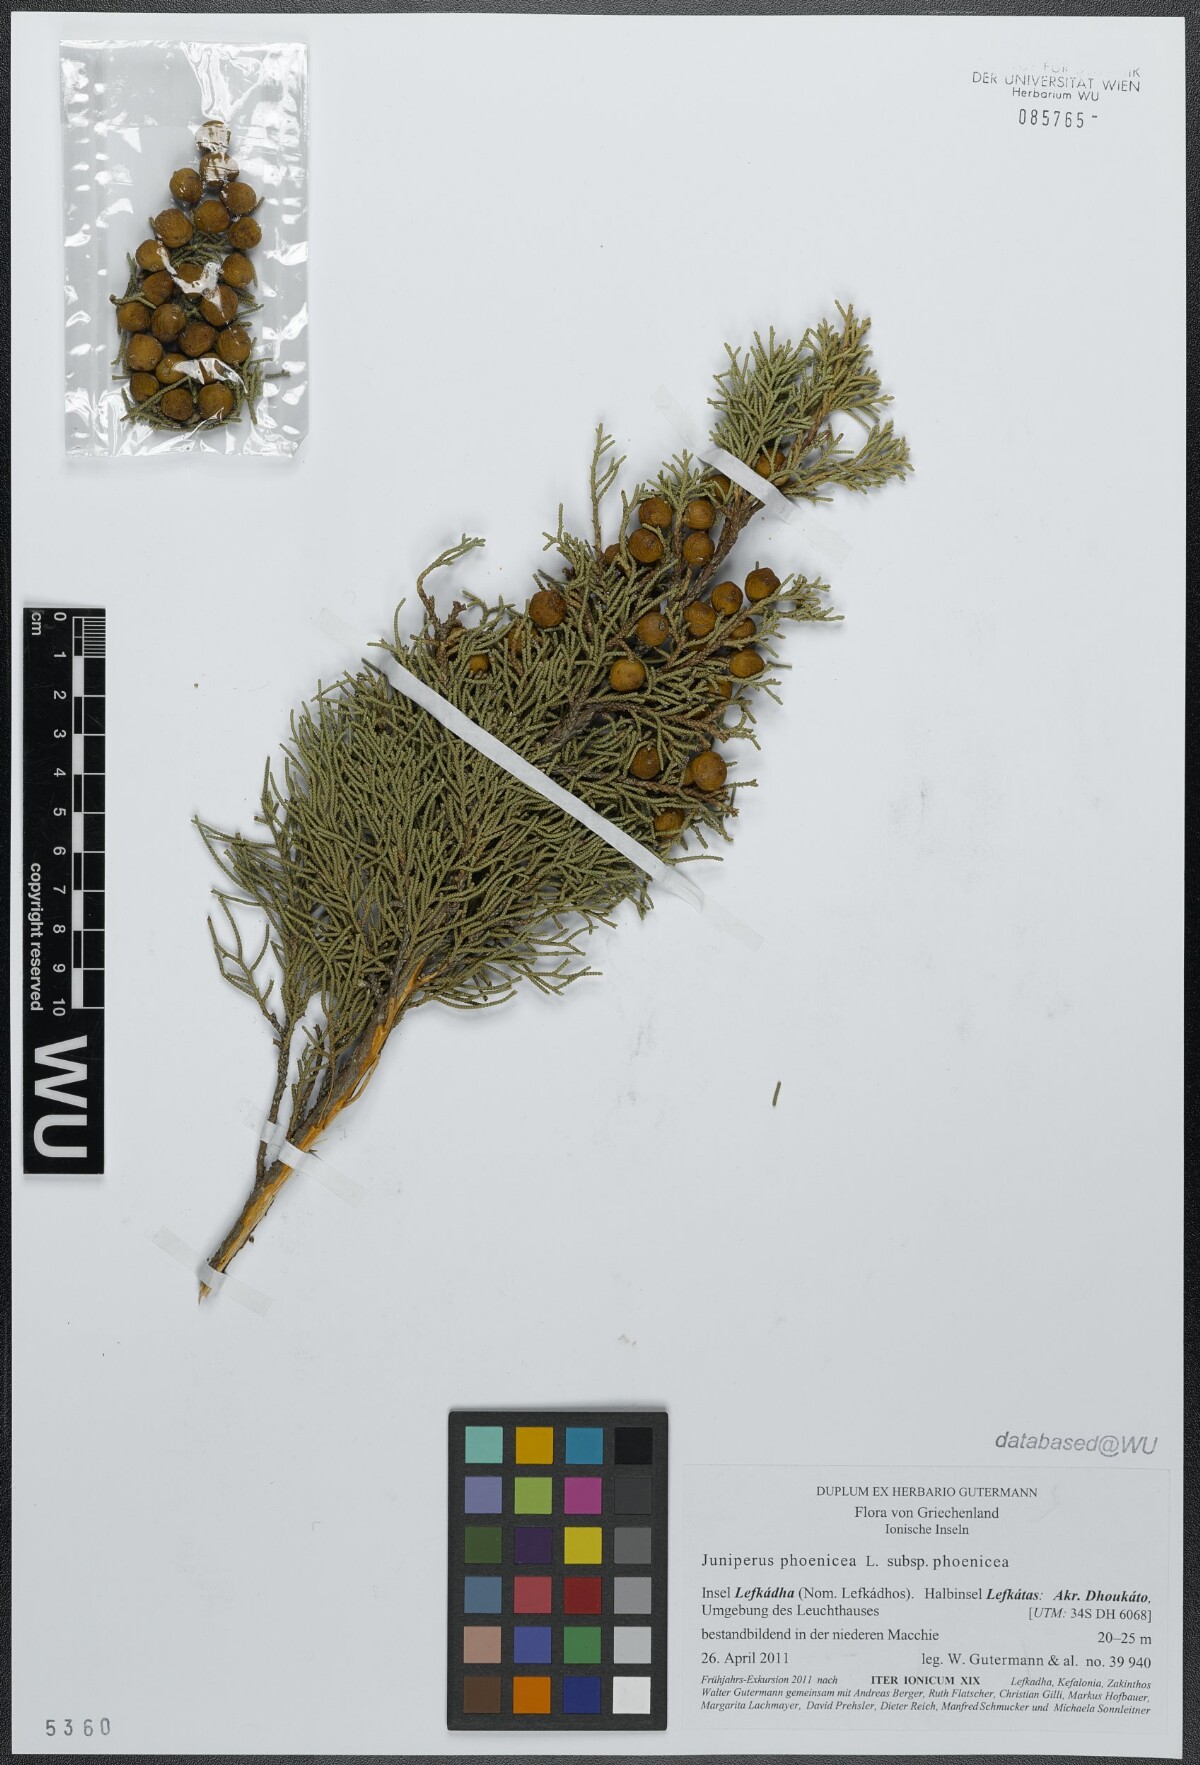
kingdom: Plantae
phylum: Tracheophyta
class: Pinopsida
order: Pinales
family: Cupressaceae
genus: Juniperus
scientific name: Juniperus phoenicea
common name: Phoenician juniper
